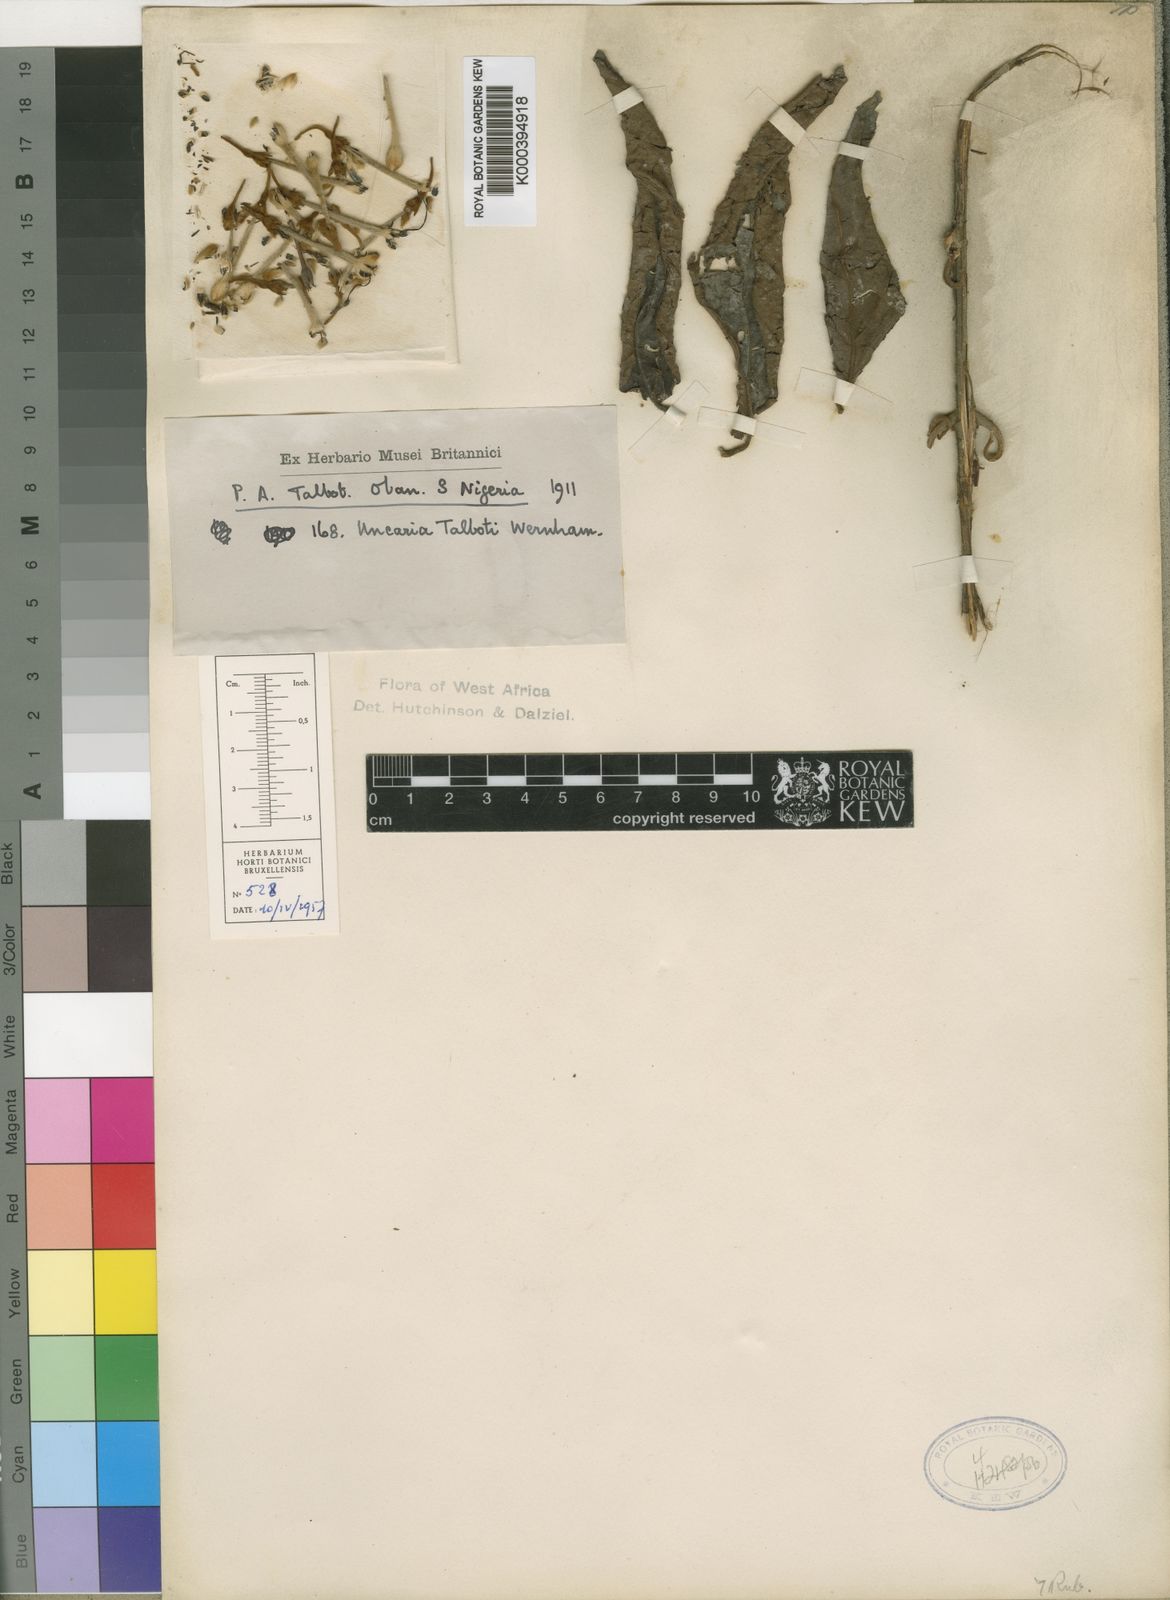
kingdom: Plantae
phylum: Tracheophyta
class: Magnoliopsida
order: Gentianales
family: Rubiaceae
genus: Uncaria
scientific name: Uncaria talbotii
